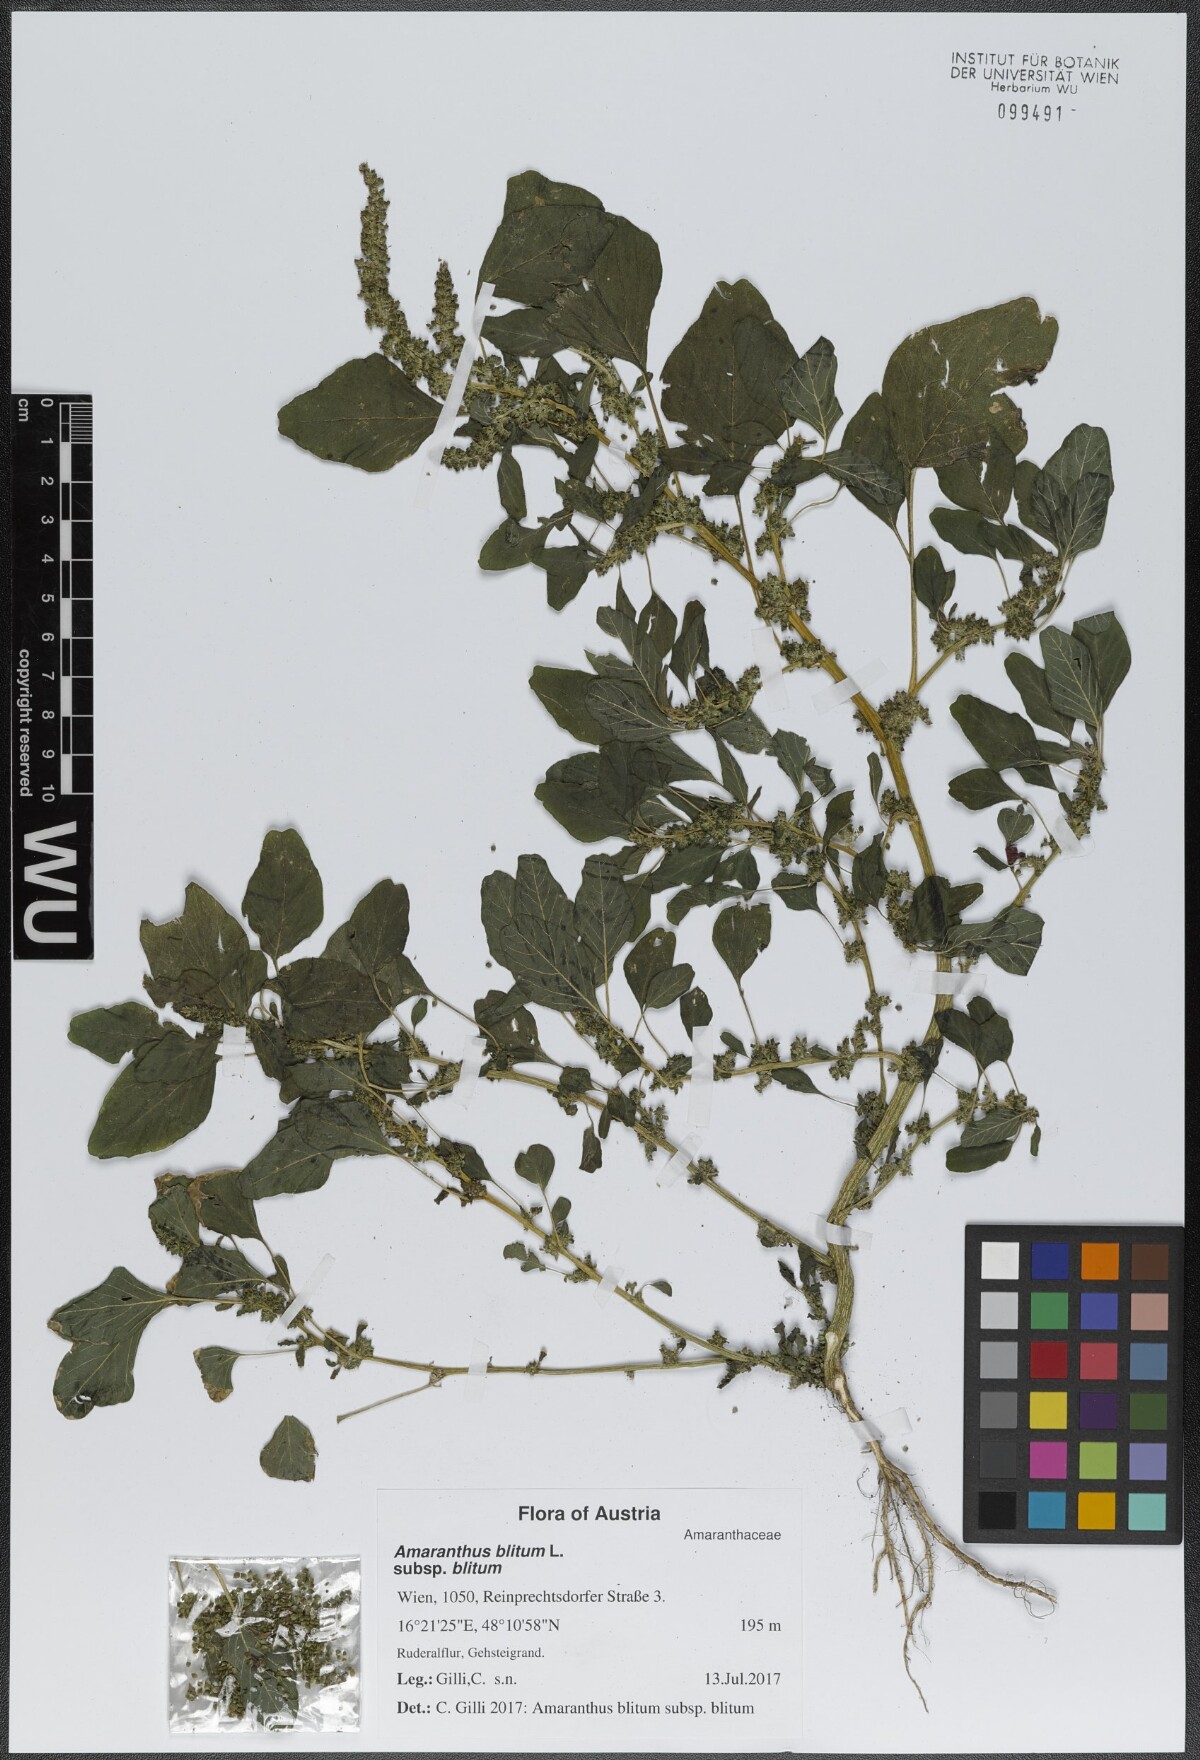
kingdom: Plantae
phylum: Tracheophyta
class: Magnoliopsida
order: Caryophyllales
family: Amaranthaceae
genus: Amaranthus
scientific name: Amaranthus blitum
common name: Purple amaranth
